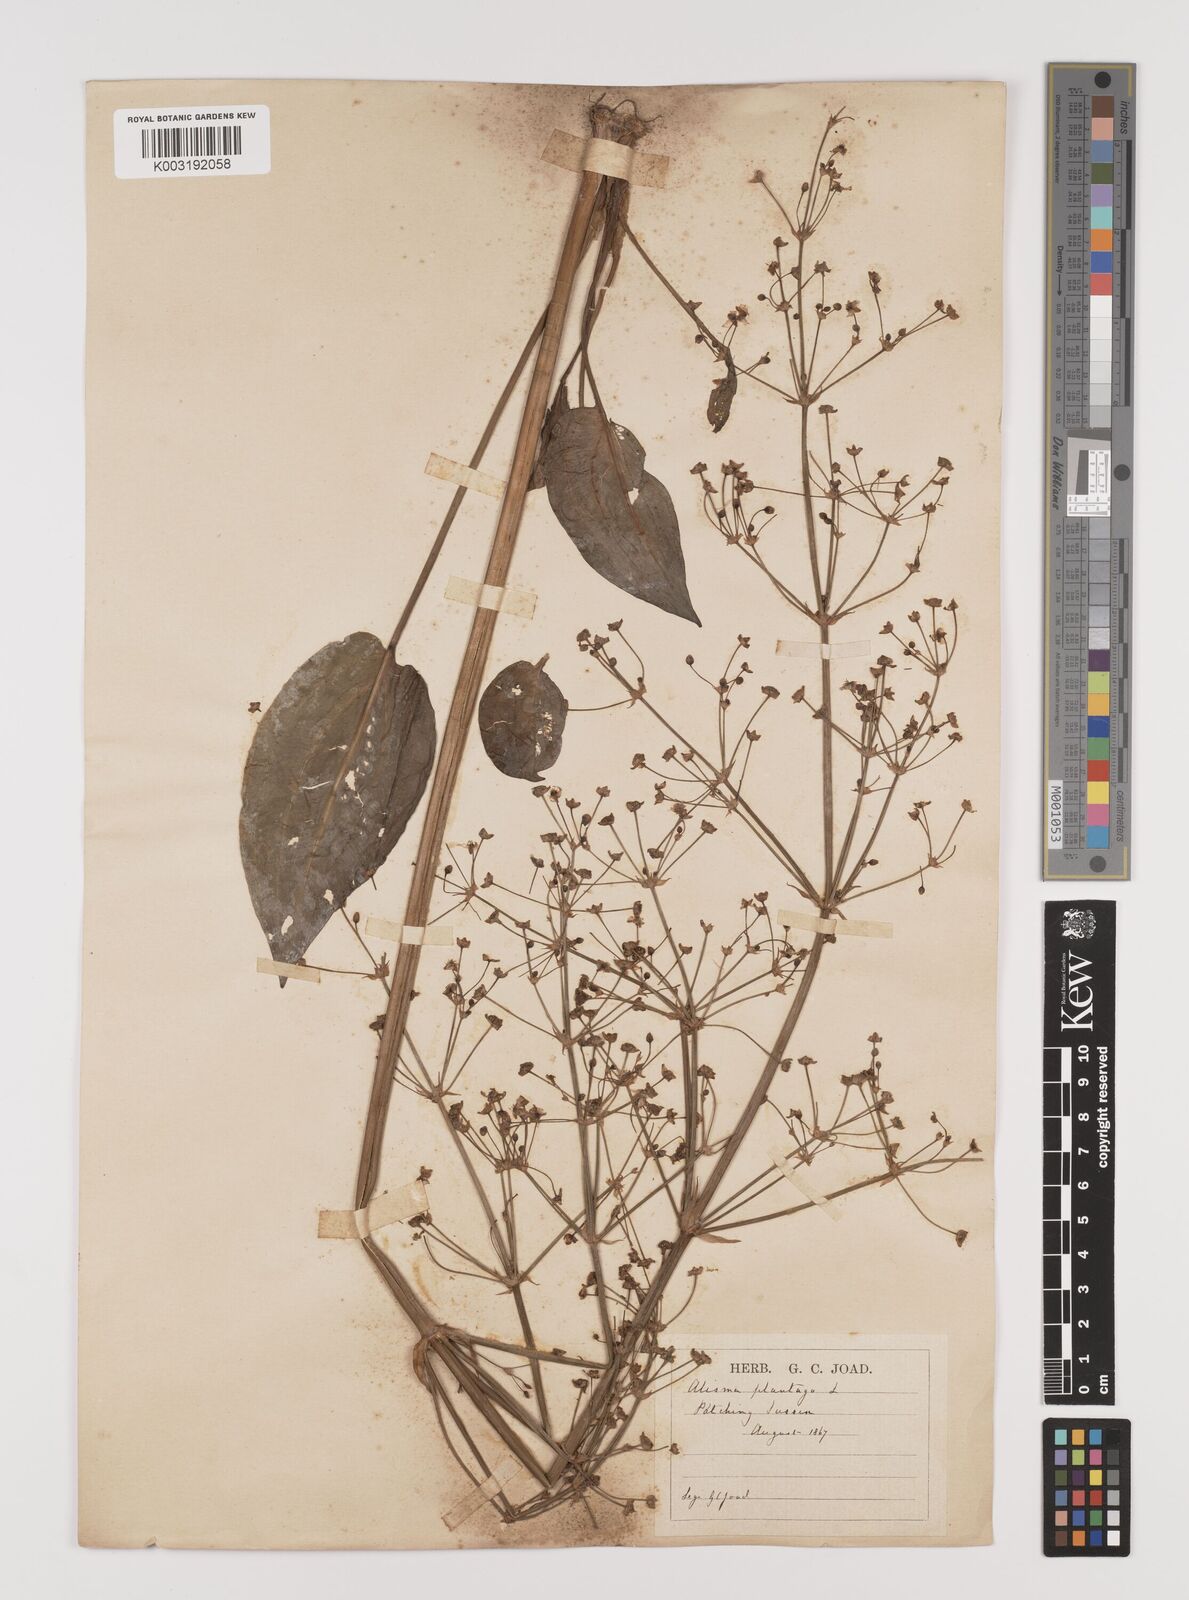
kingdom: Plantae
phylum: Tracheophyta
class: Liliopsida
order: Alismatales
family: Alismataceae
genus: Alisma
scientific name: Alisma plantago-aquatica
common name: Water-plantain
